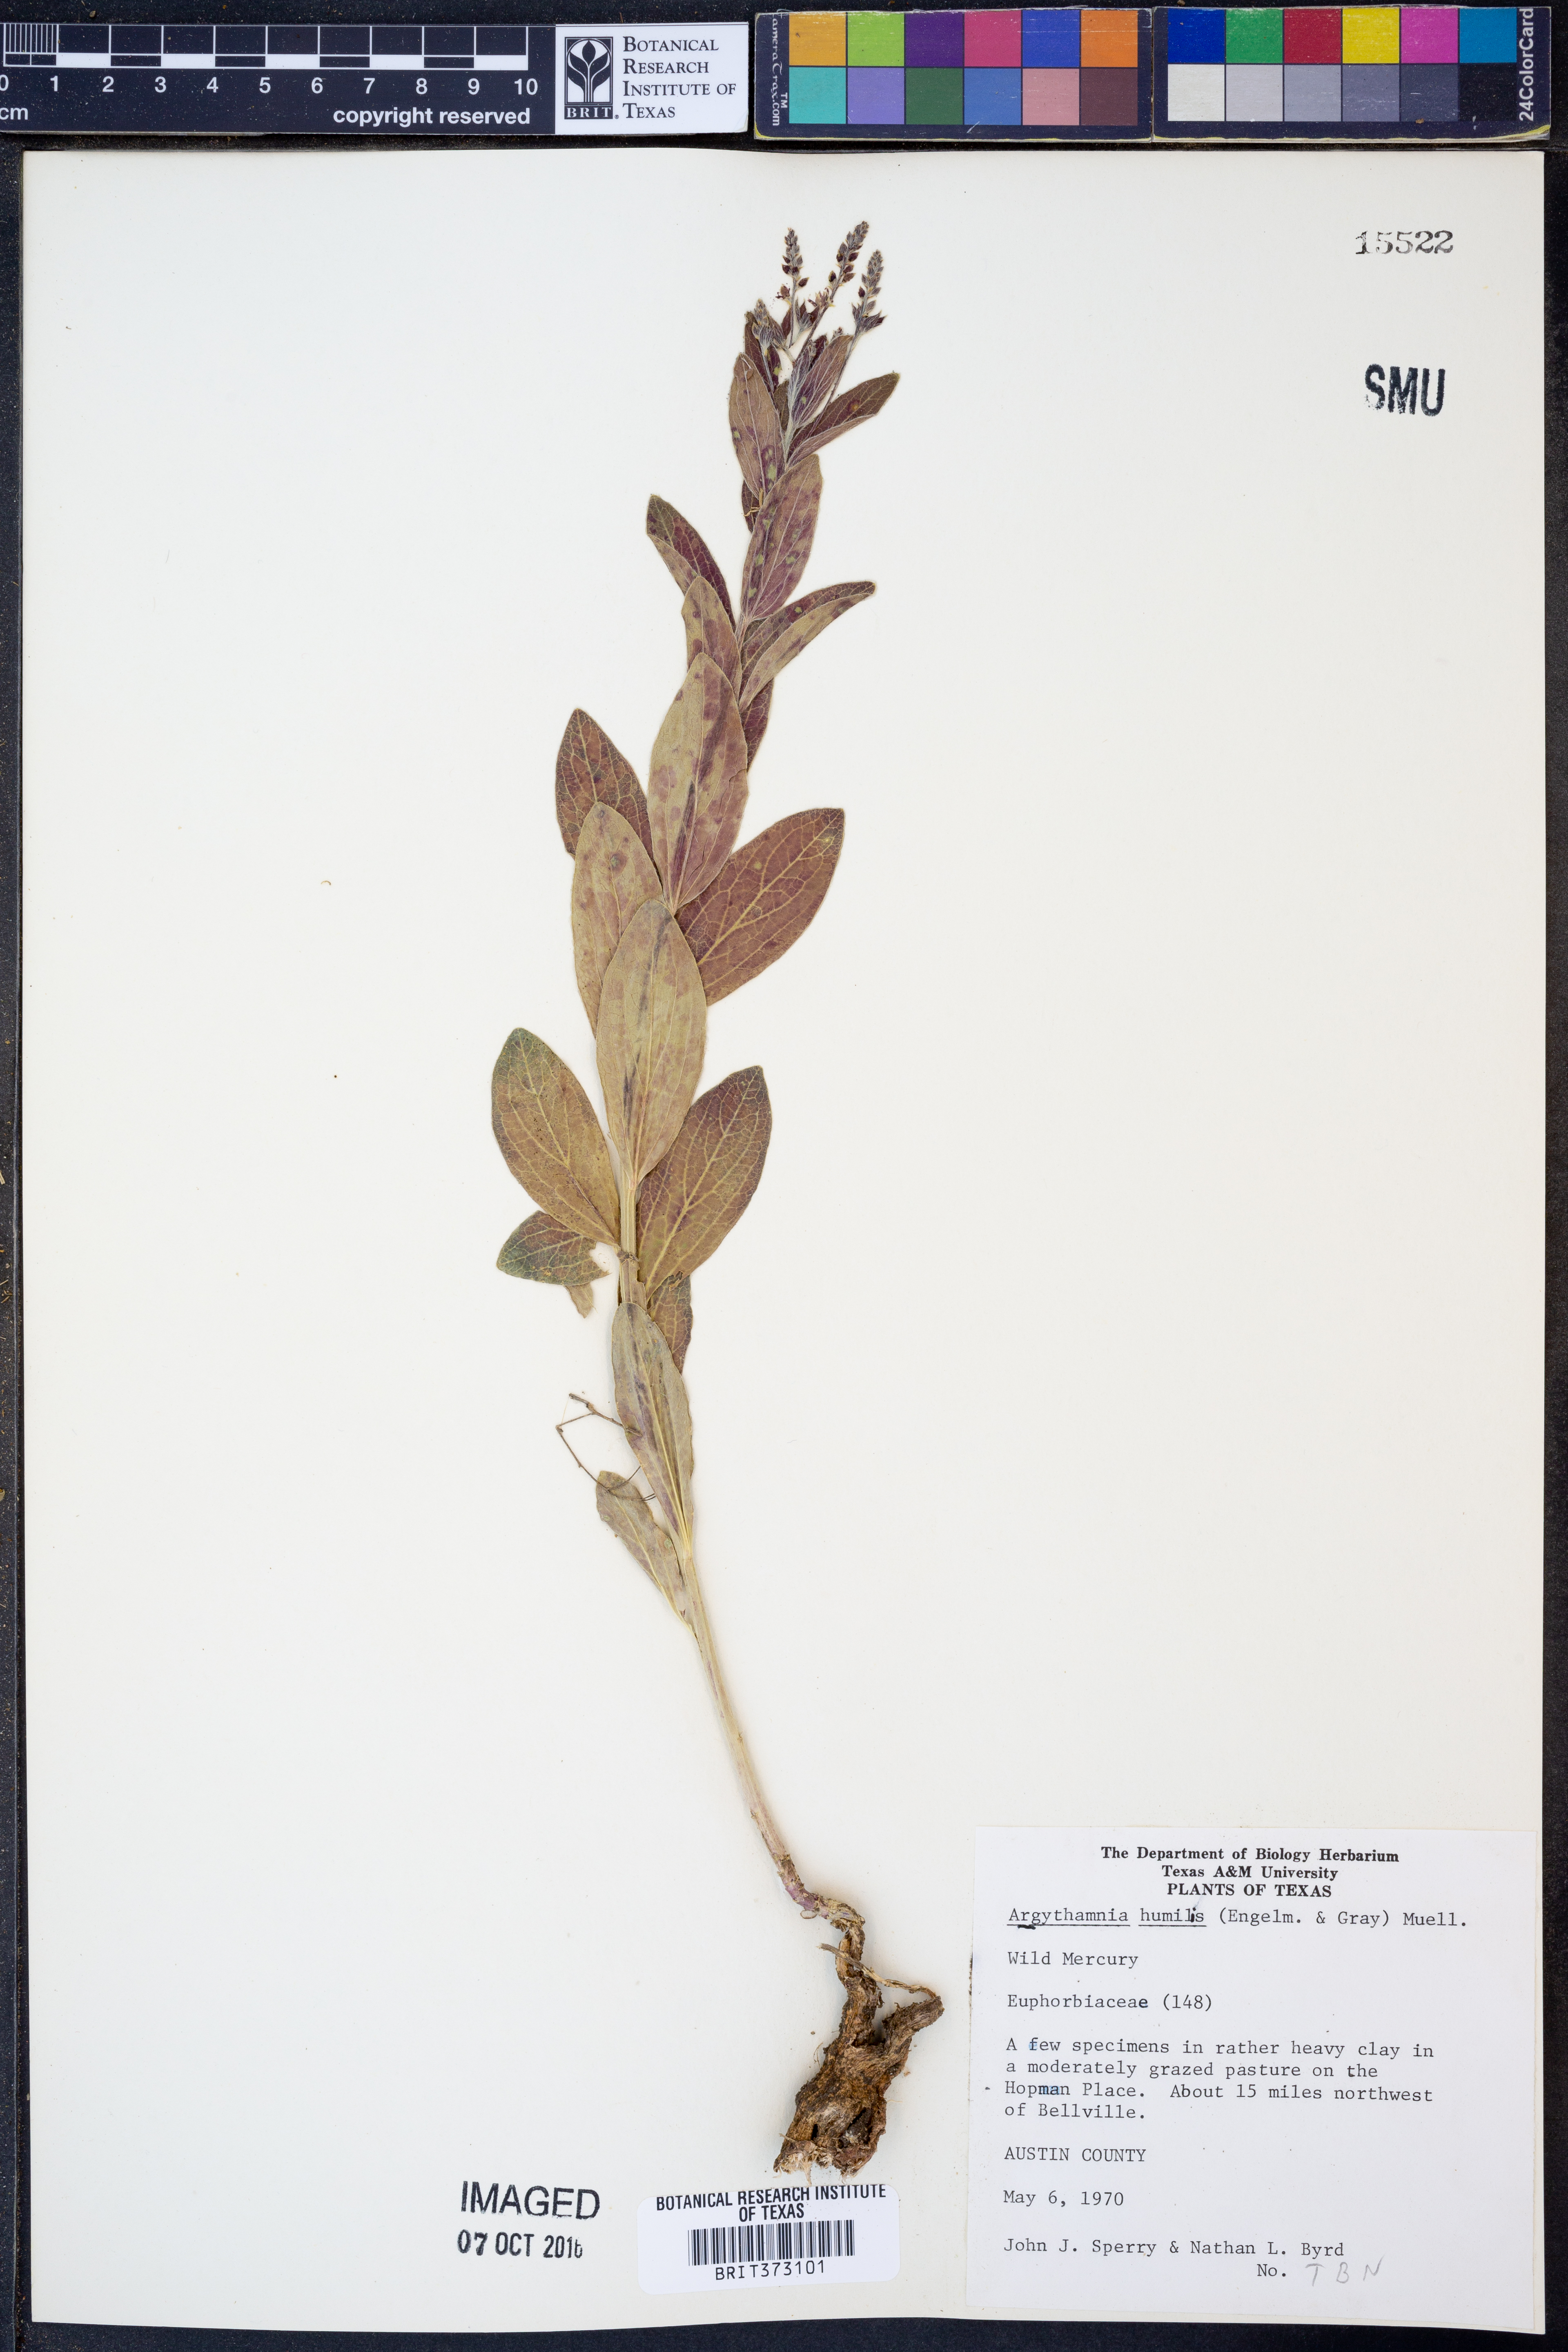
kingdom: Plantae
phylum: Tracheophyta
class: Magnoliopsida
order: Malpighiales
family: Euphorbiaceae
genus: Ditaxis
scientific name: Ditaxis humilis
